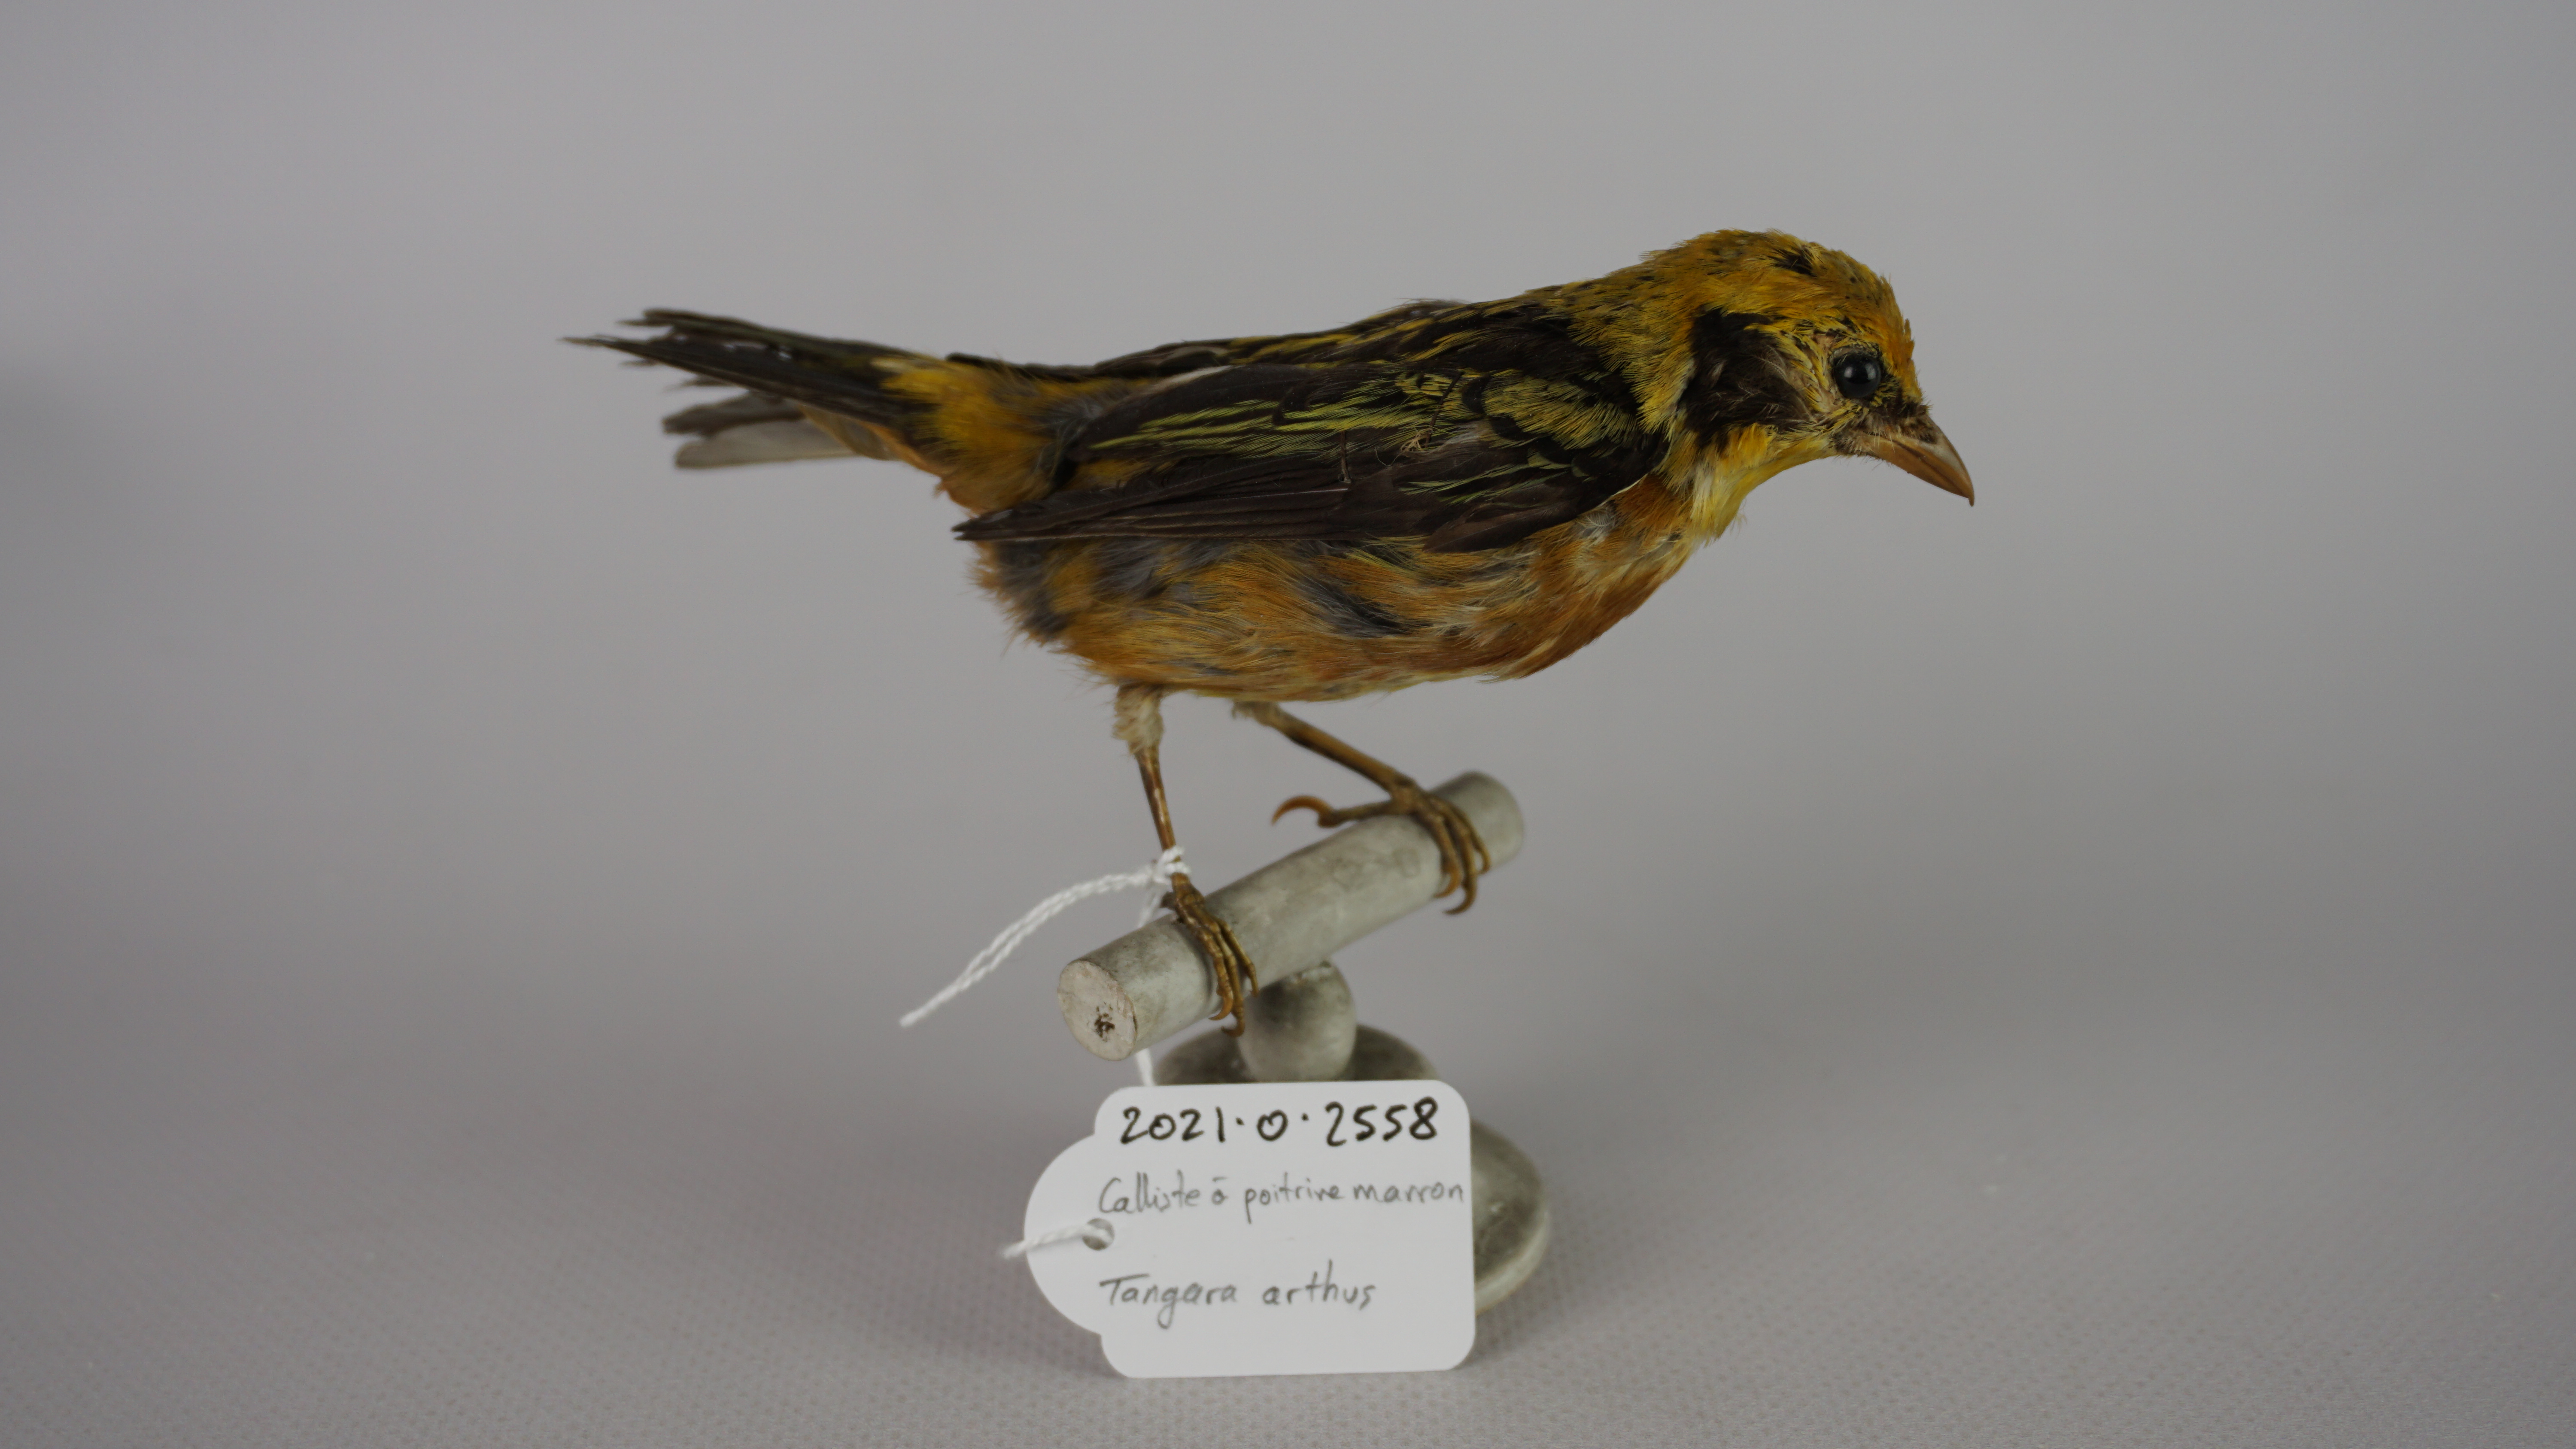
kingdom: Animalia
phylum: Chordata
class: Aves
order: Passeriformes
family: Thraupidae
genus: Tangara
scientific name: Tangara arthus
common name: Golden tanager
